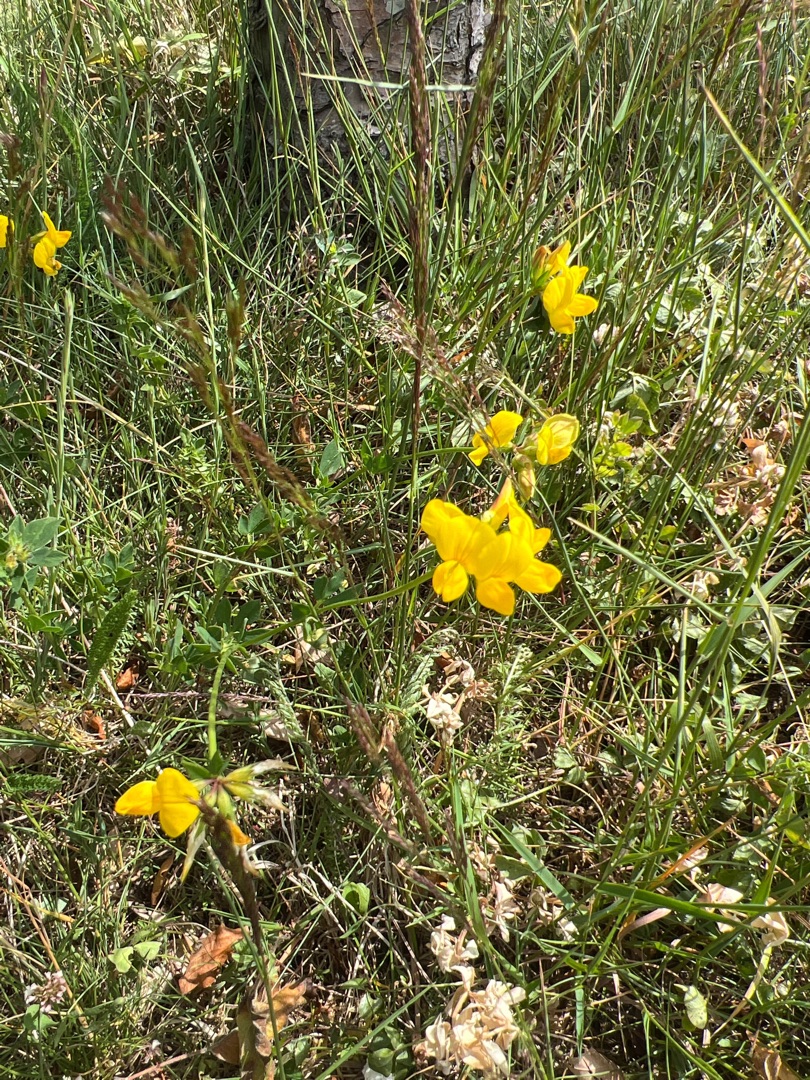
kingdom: Plantae
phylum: Tracheophyta
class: Magnoliopsida
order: Fabales
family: Fabaceae
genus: Lotus
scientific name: Lotus corniculatus
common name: Almindelig kællingetand
